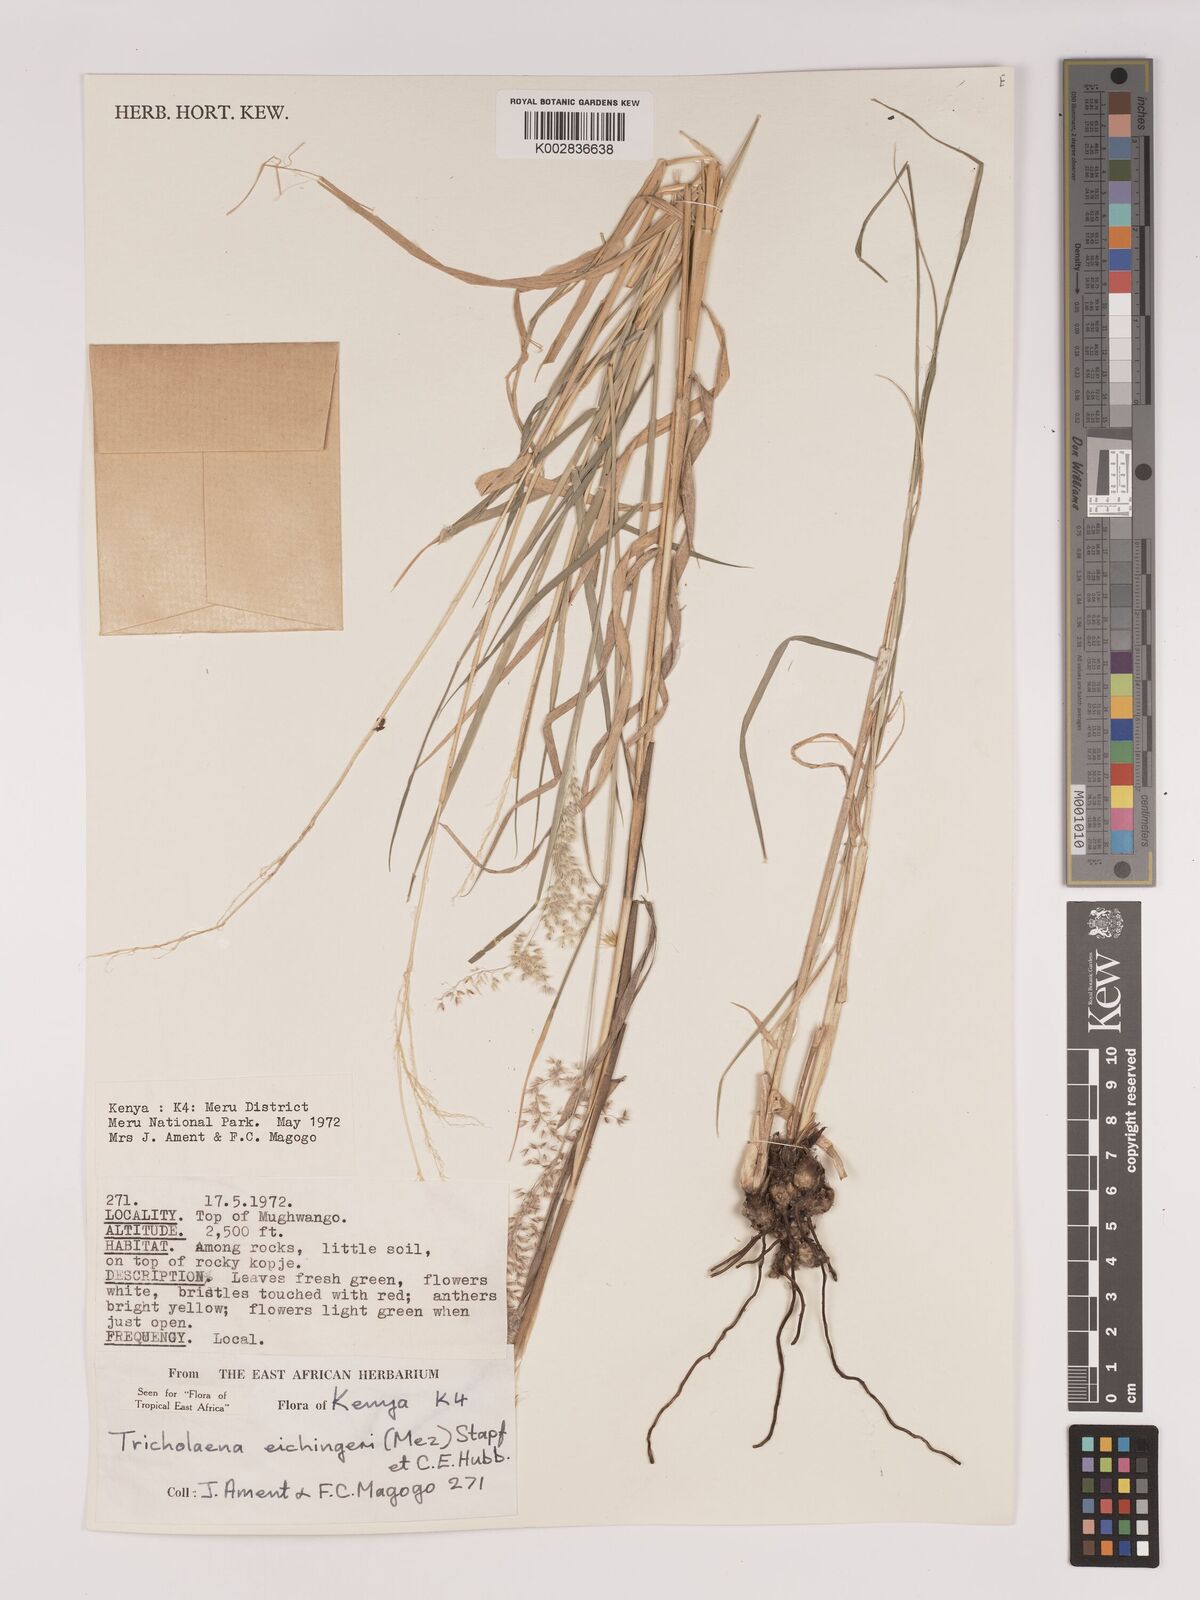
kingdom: Plantae
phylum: Tracheophyta
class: Liliopsida
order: Poales
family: Poaceae
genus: Tricholaena
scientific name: Tricholaena teneriffae
